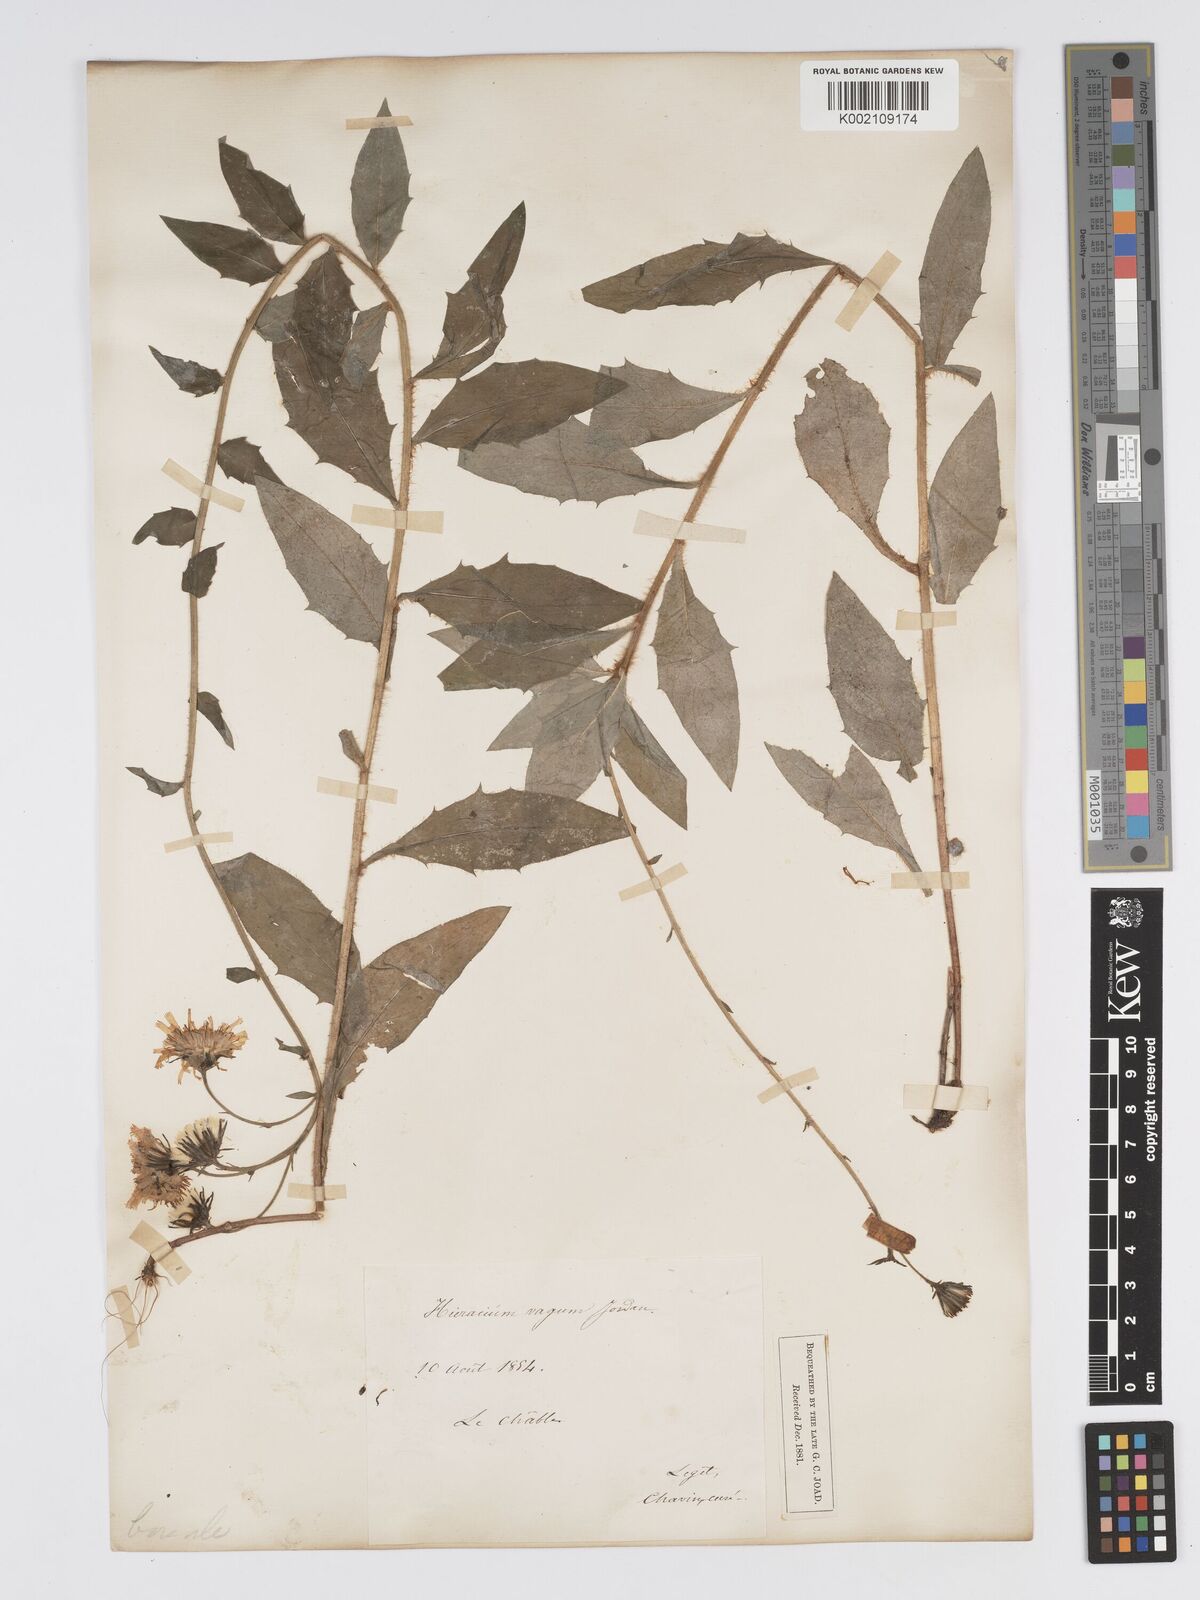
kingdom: Plantae
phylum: Tracheophyta
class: Magnoliopsida
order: Asterales
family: Asteraceae
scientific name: Asteraceae
